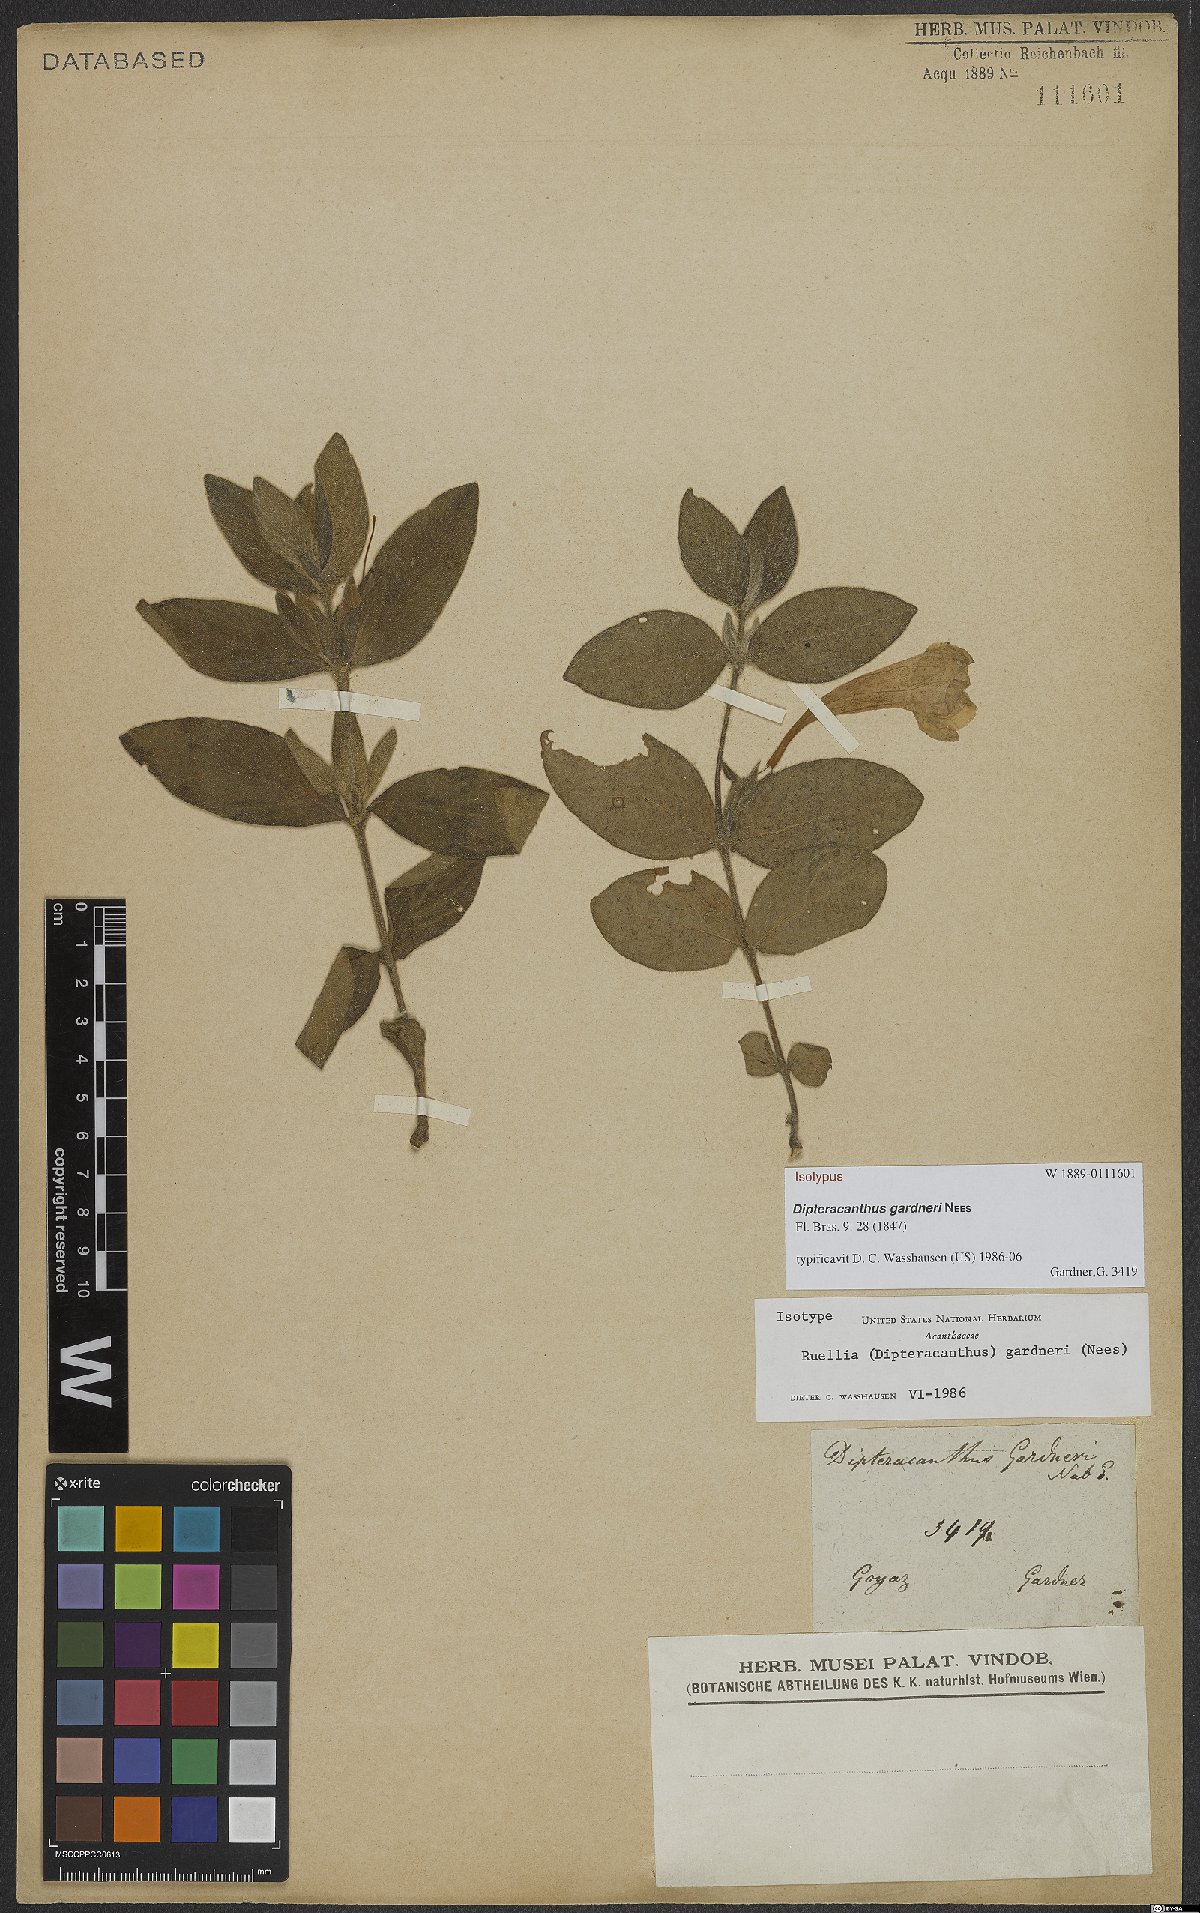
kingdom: Plantae
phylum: Tracheophyta
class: Magnoliopsida
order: Lamiales
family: Acanthaceae
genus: Ruellia
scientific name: Ruellia Dipteracanthus gardneri
